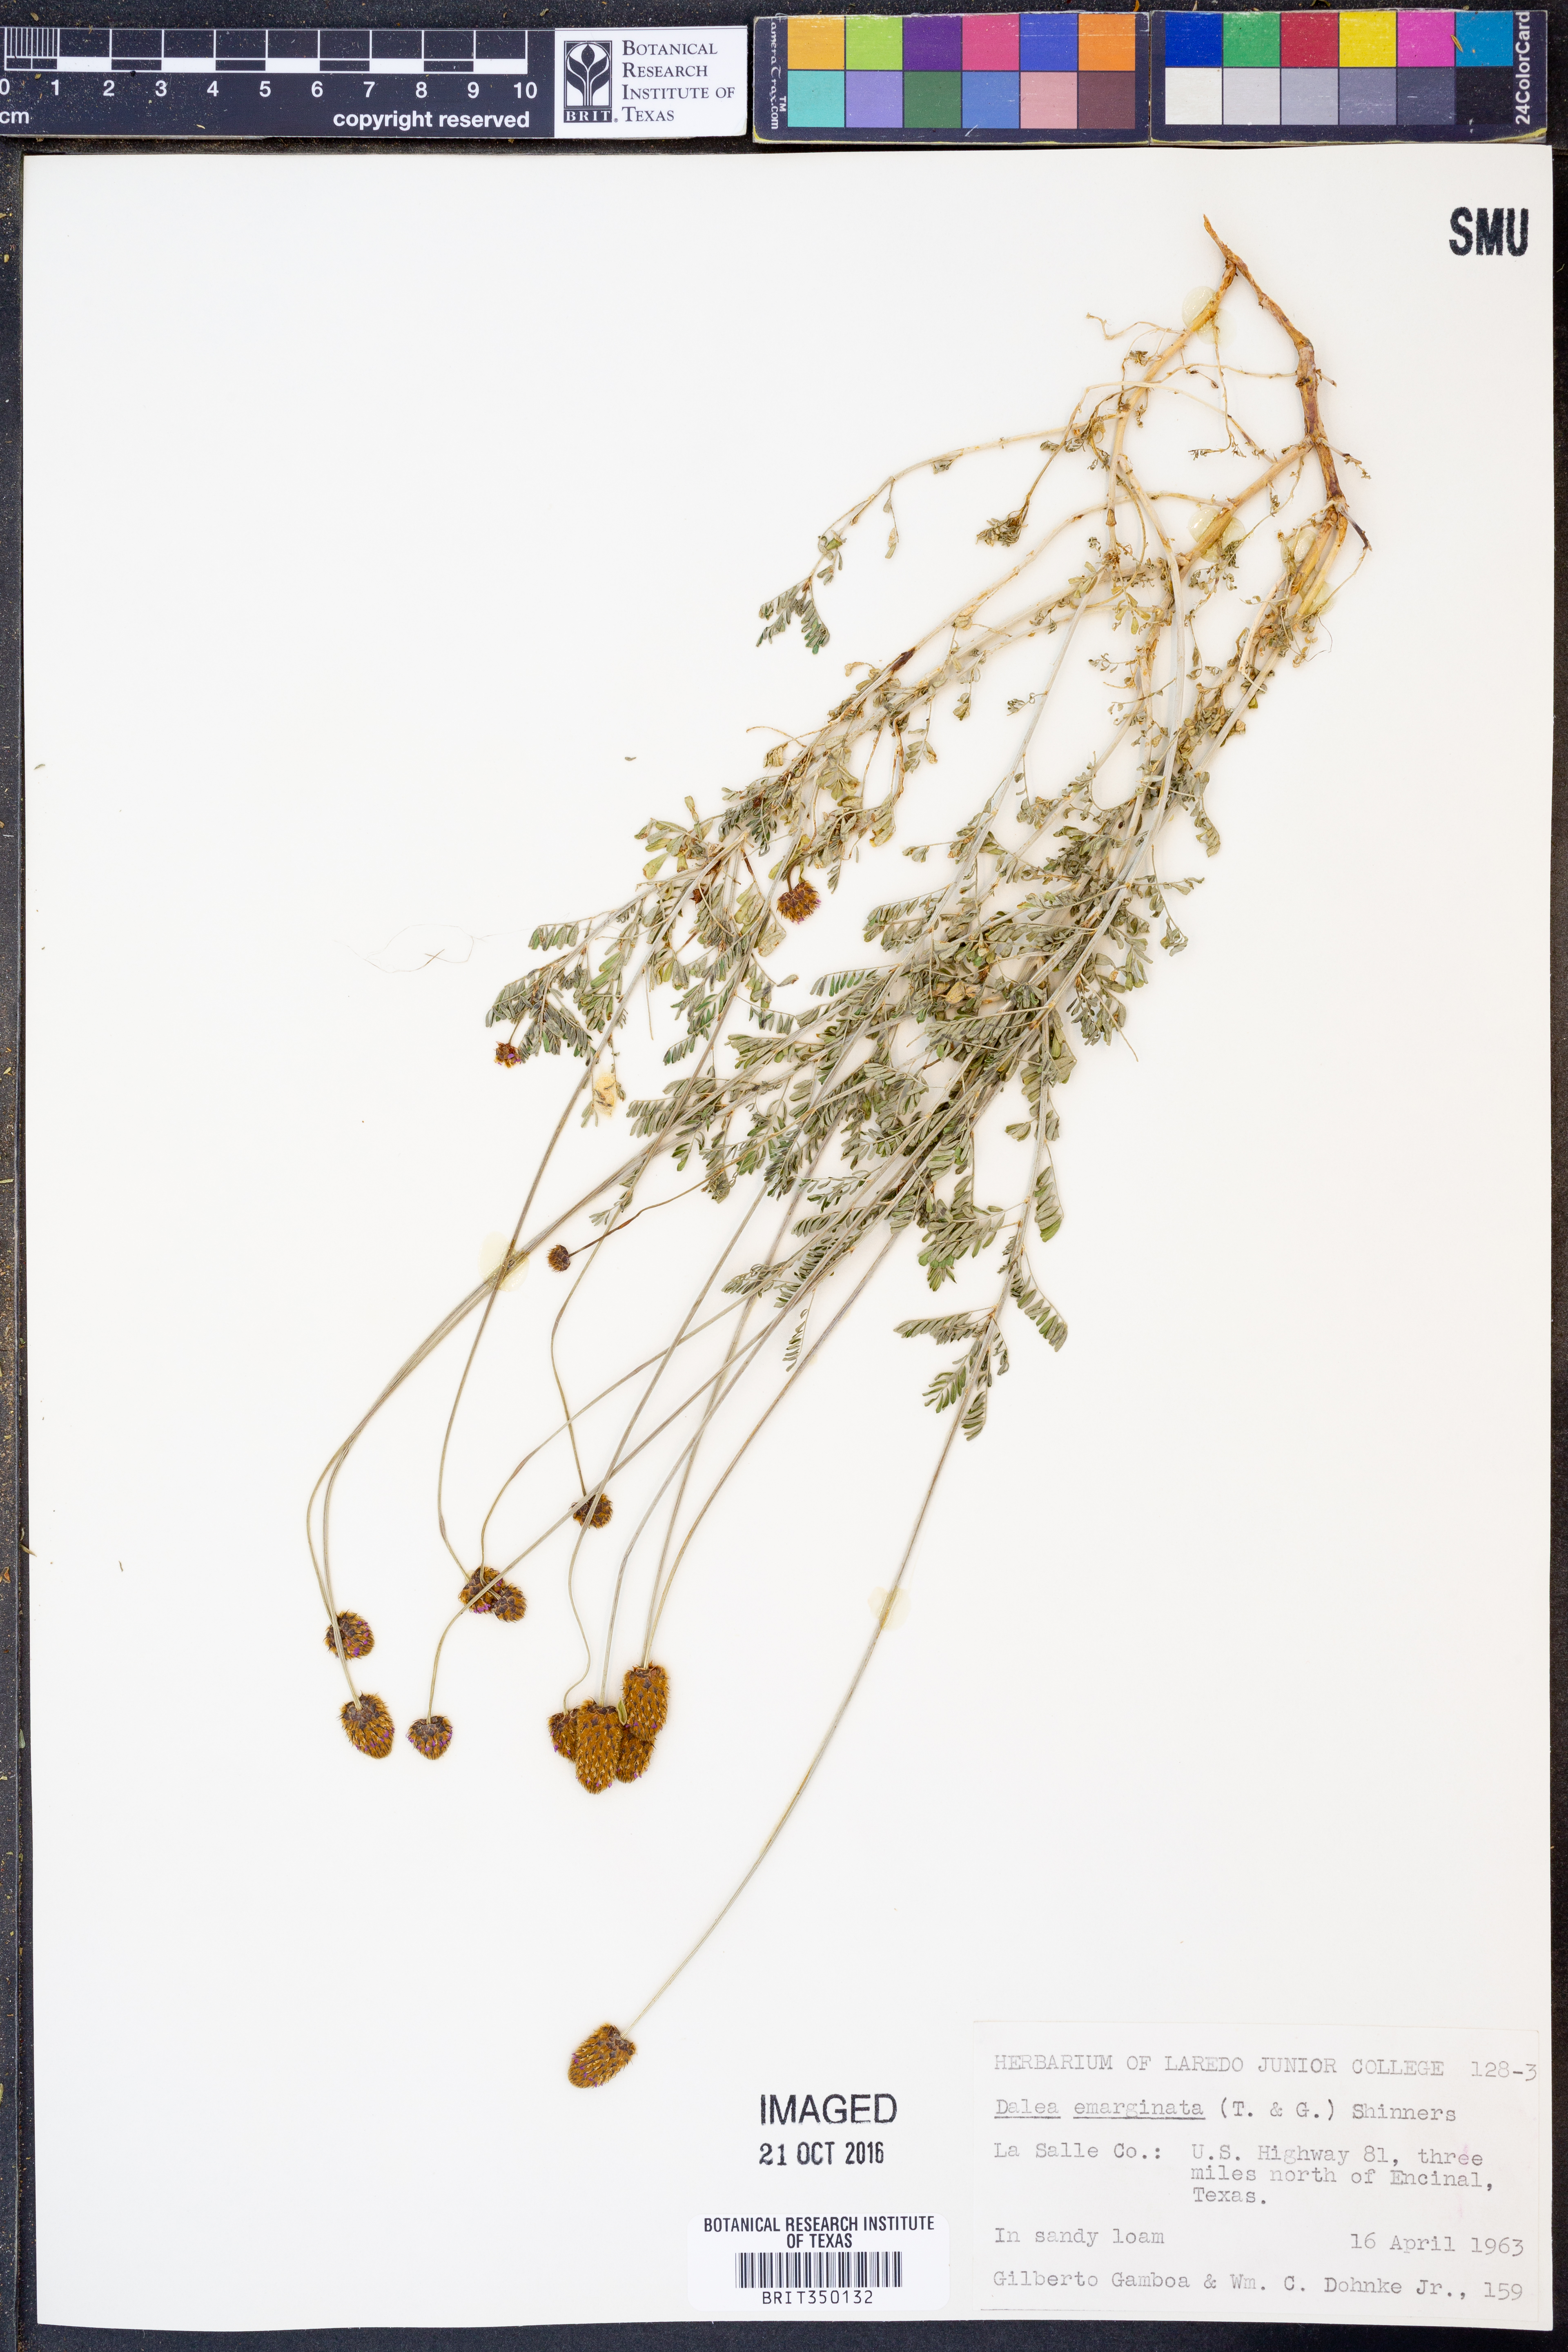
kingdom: Plantae
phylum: Tracheophyta
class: Magnoliopsida
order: Fabales
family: Fabaceae
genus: Dalea
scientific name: Dalea emarginata
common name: Wedgeleaf prairie clover
